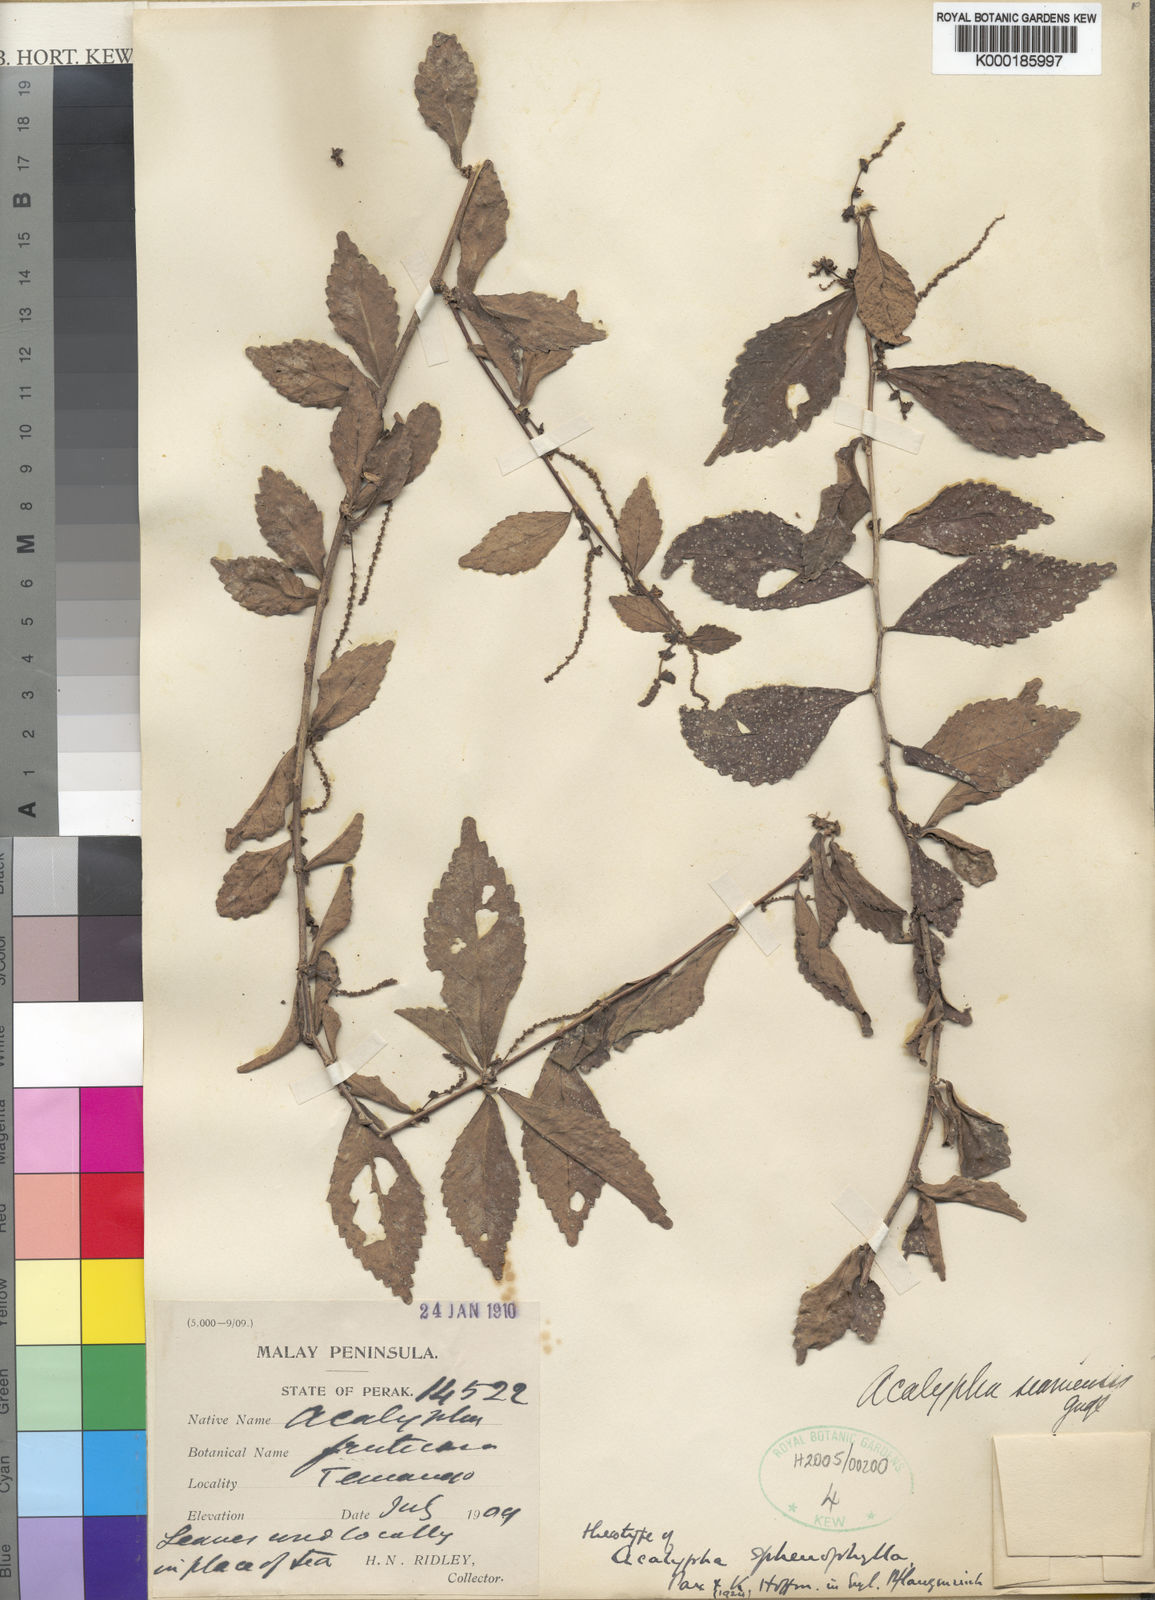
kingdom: Plantae
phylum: Tracheophyta
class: Magnoliopsida
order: Malpighiales
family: Euphorbiaceae
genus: Acalypha
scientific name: Acalypha siamensis
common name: Wild tea
